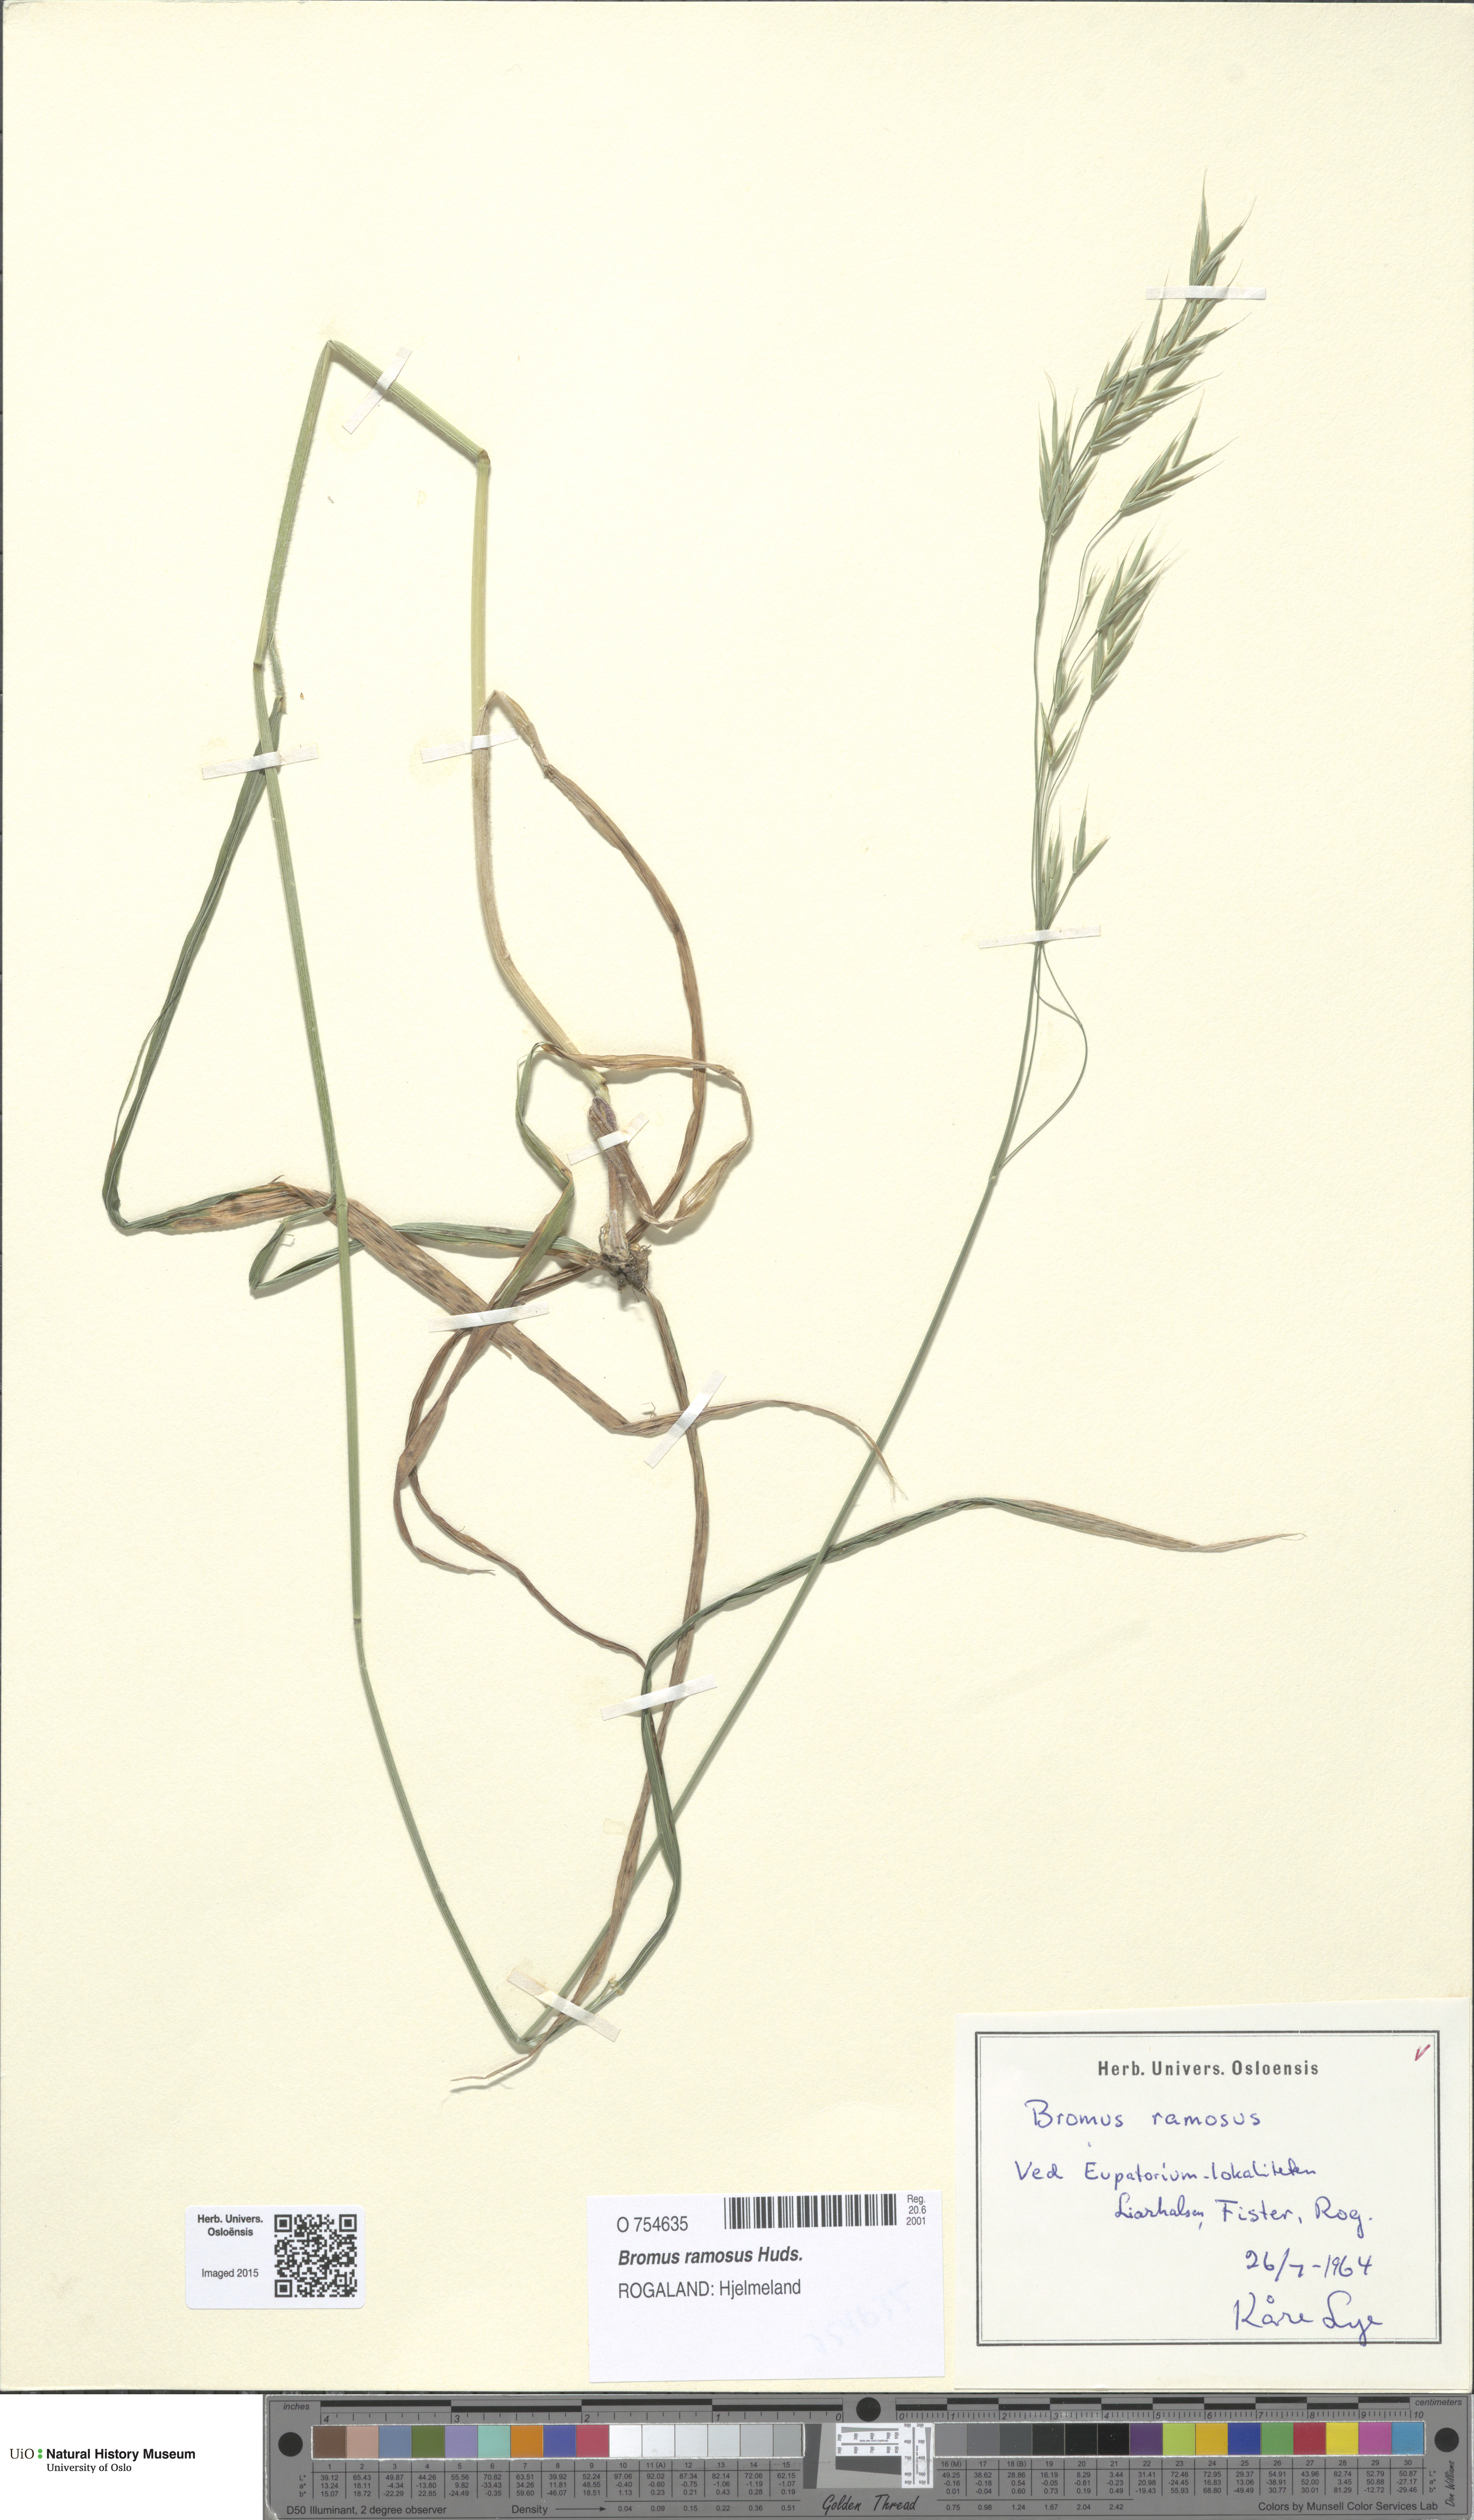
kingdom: Plantae
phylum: Tracheophyta
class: Liliopsida
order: Poales
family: Poaceae
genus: Bromus
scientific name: Bromus ramosus
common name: Hairy brome
